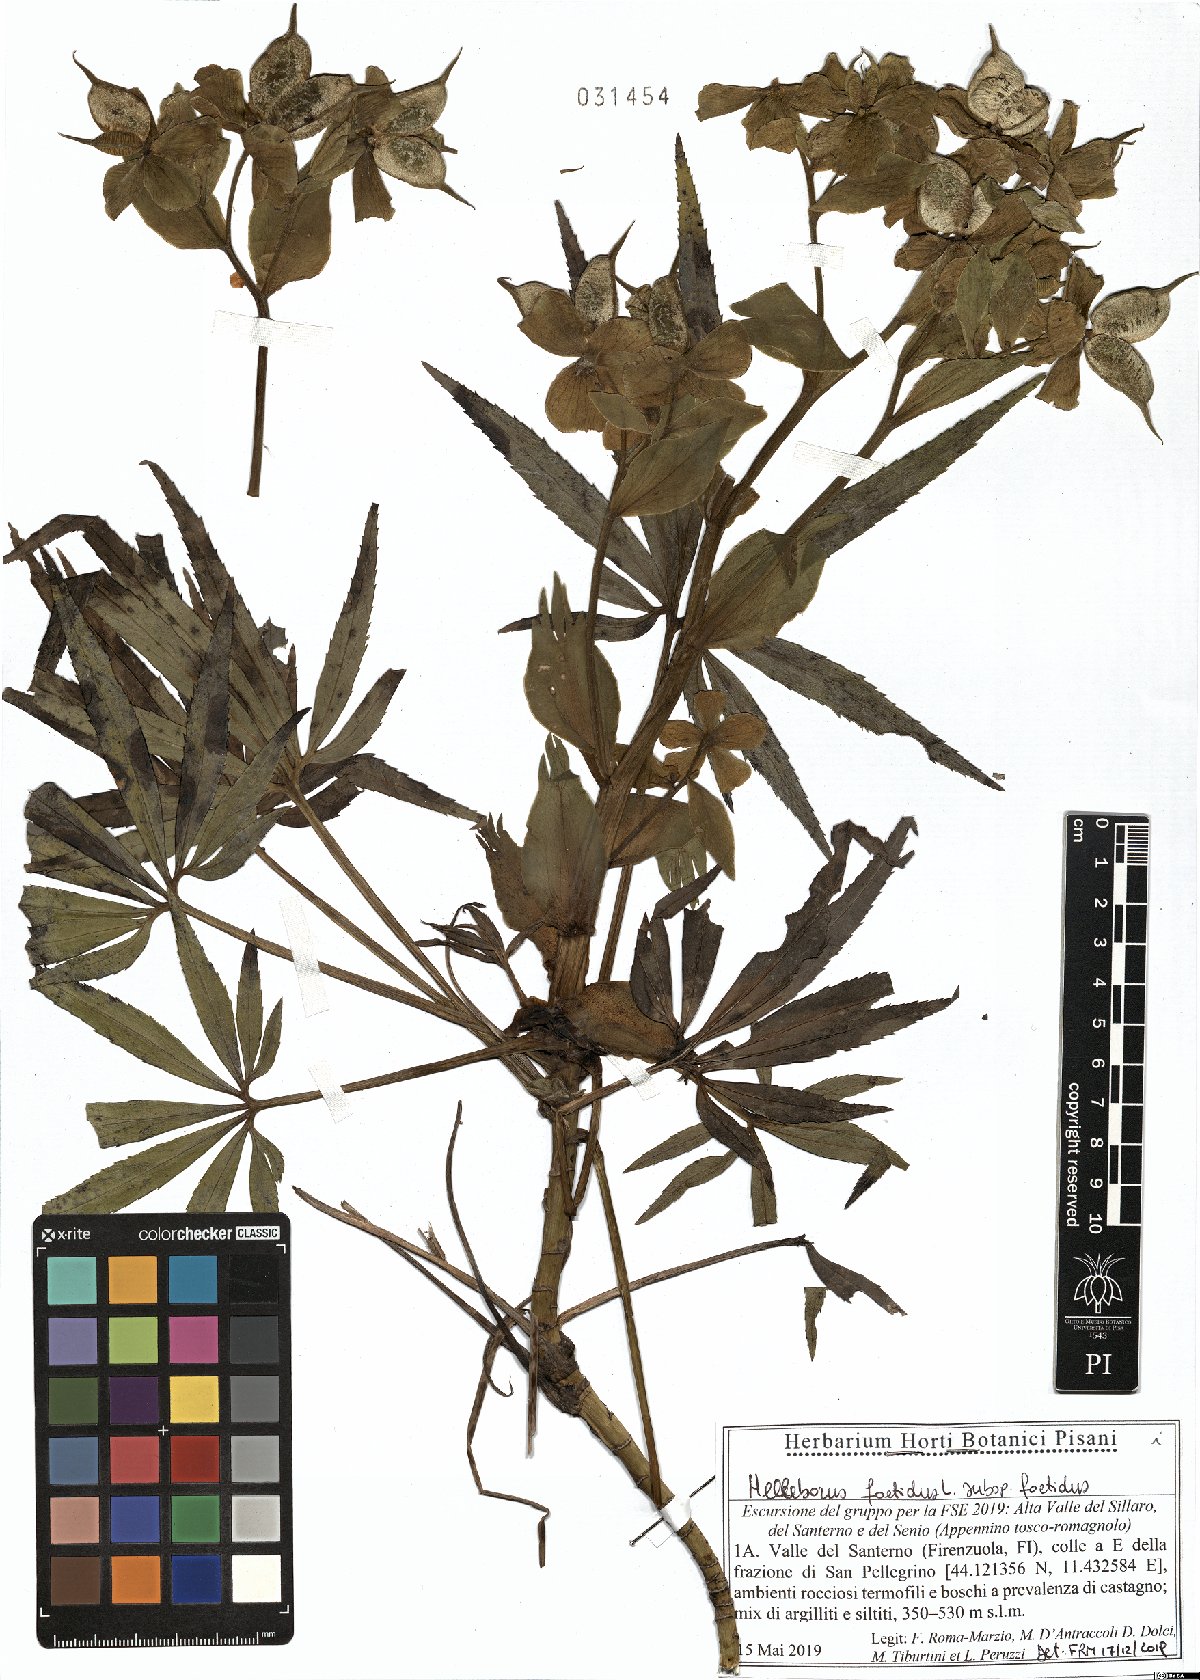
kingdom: Plantae
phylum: Tracheophyta
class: Magnoliopsida
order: Ranunculales
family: Ranunculaceae
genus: Helleborus
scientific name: Helleborus foetidus
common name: Stinking hellebore
